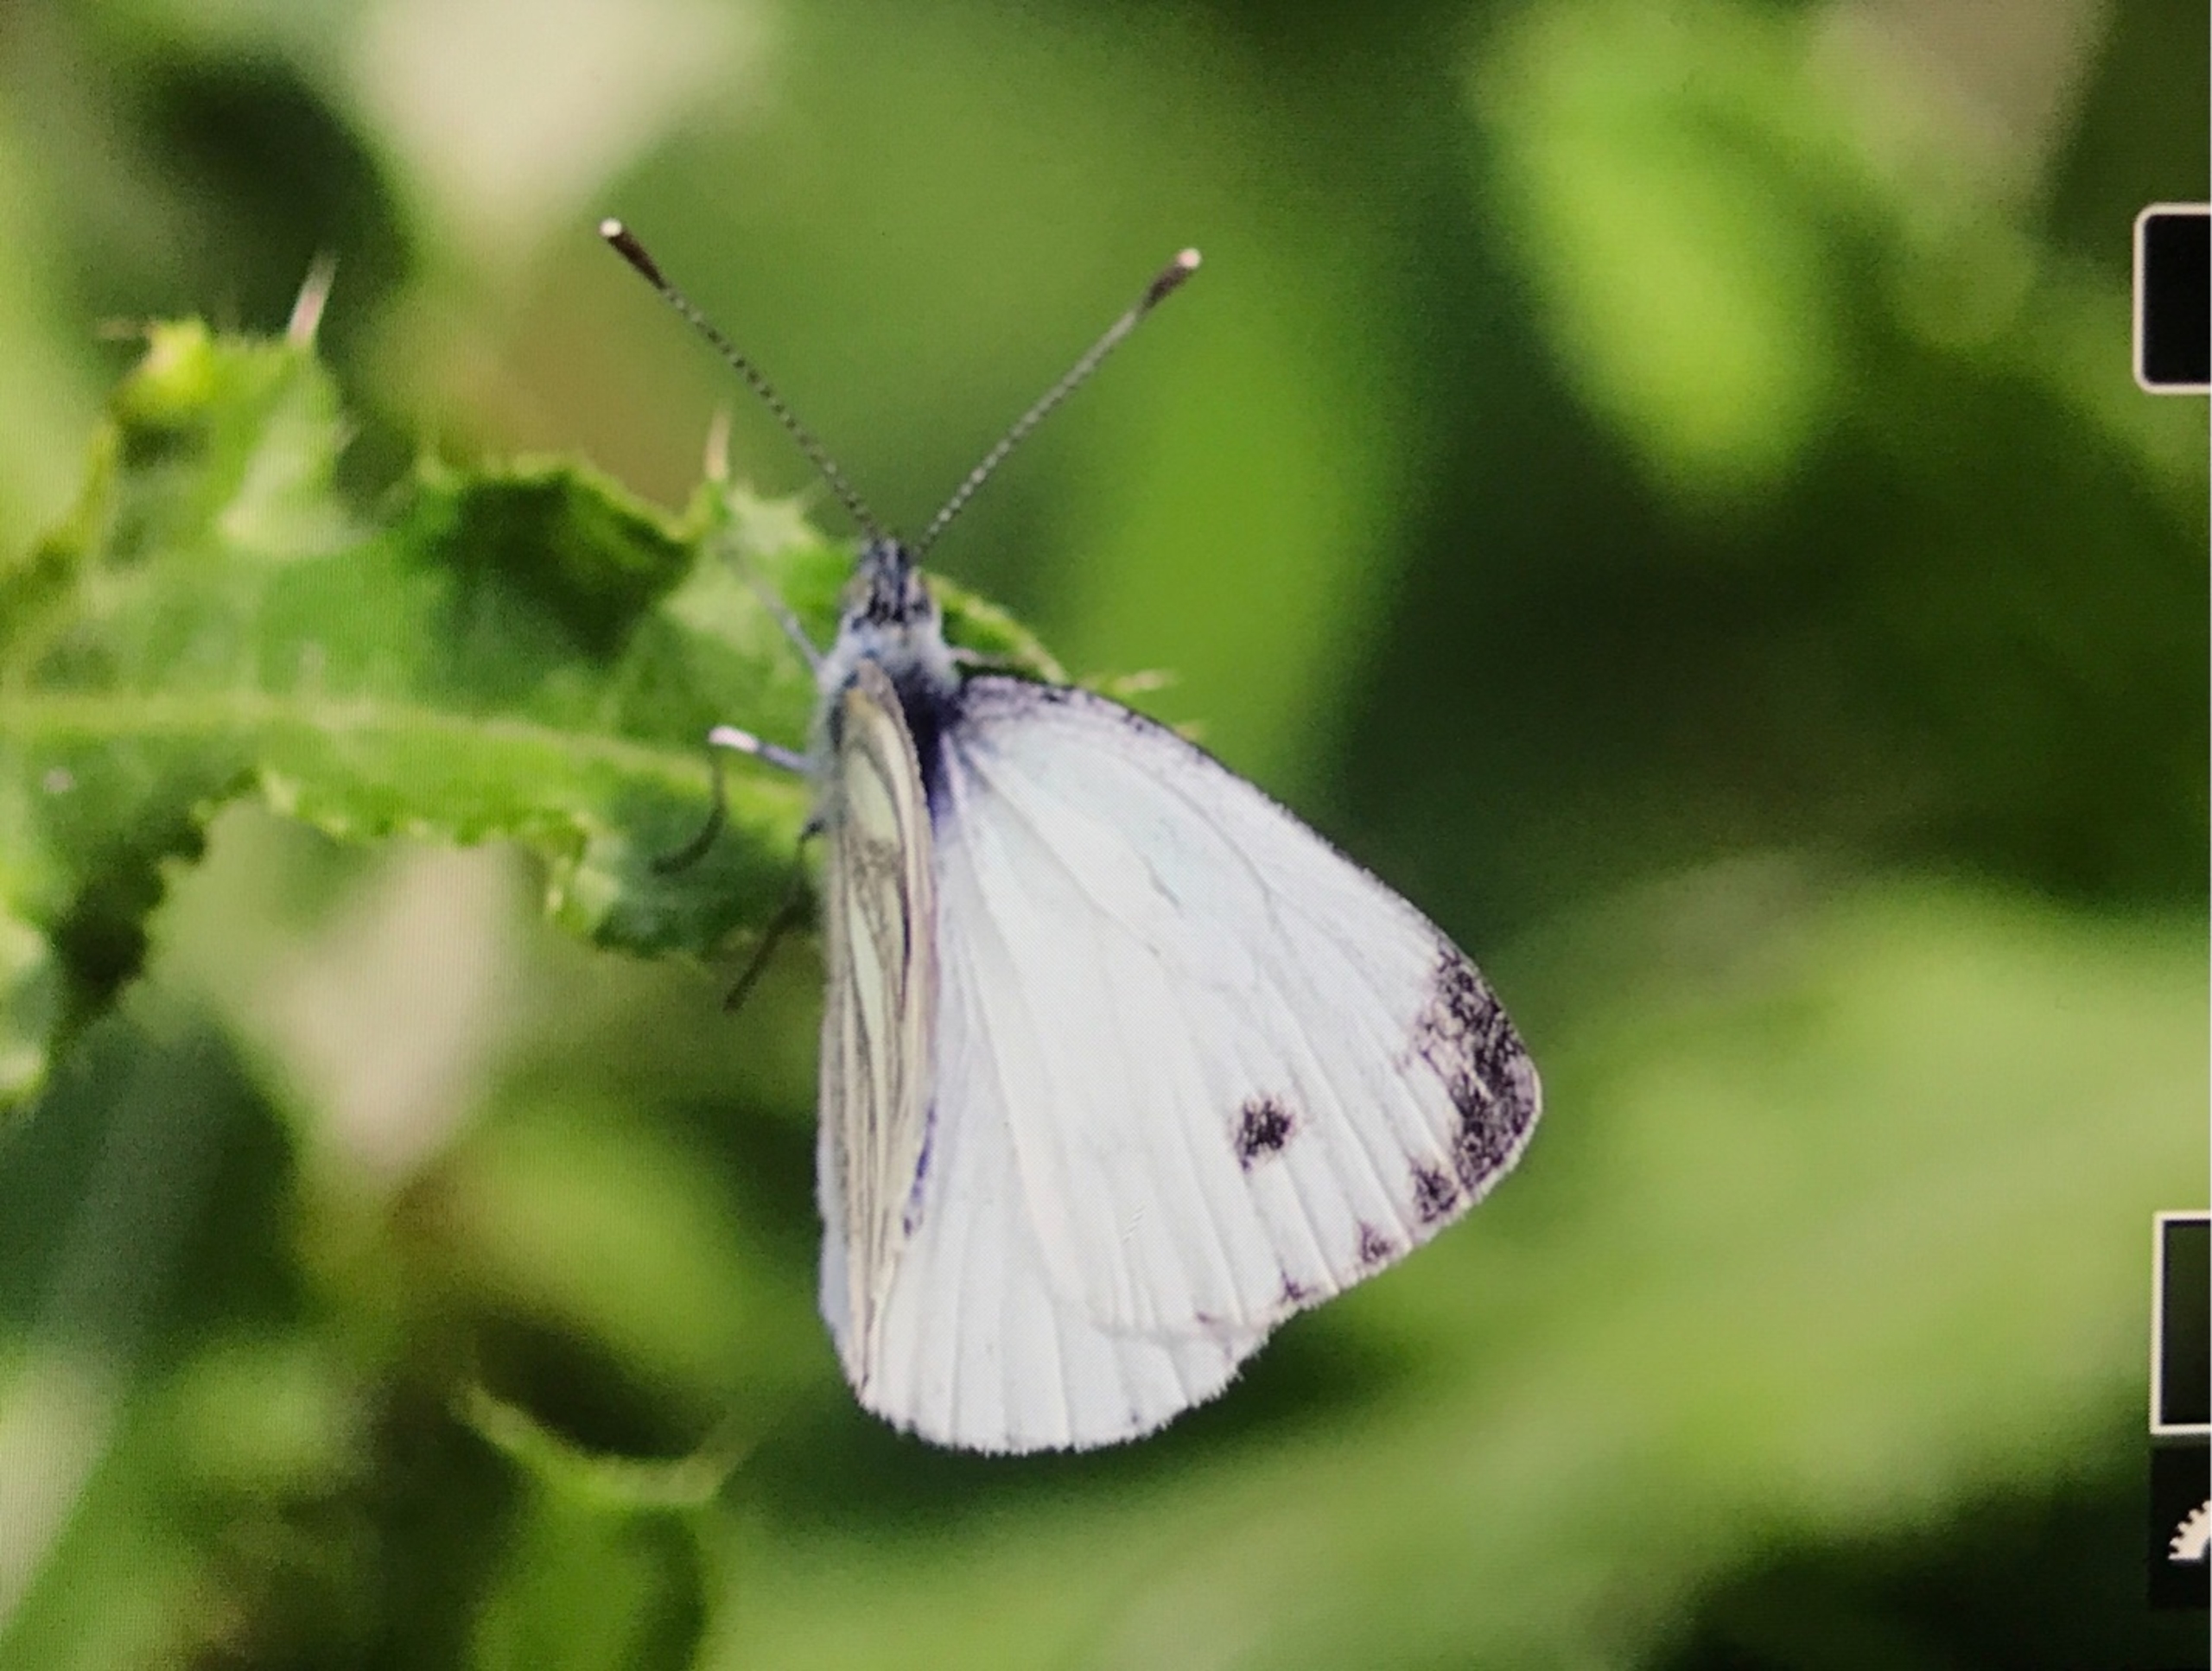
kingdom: Animalia
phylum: Arthropoda
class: Insecta
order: Lepidoptera
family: Pieridae
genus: Pieris
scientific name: Pieris napi
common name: Grønåret kålsommerfugl
